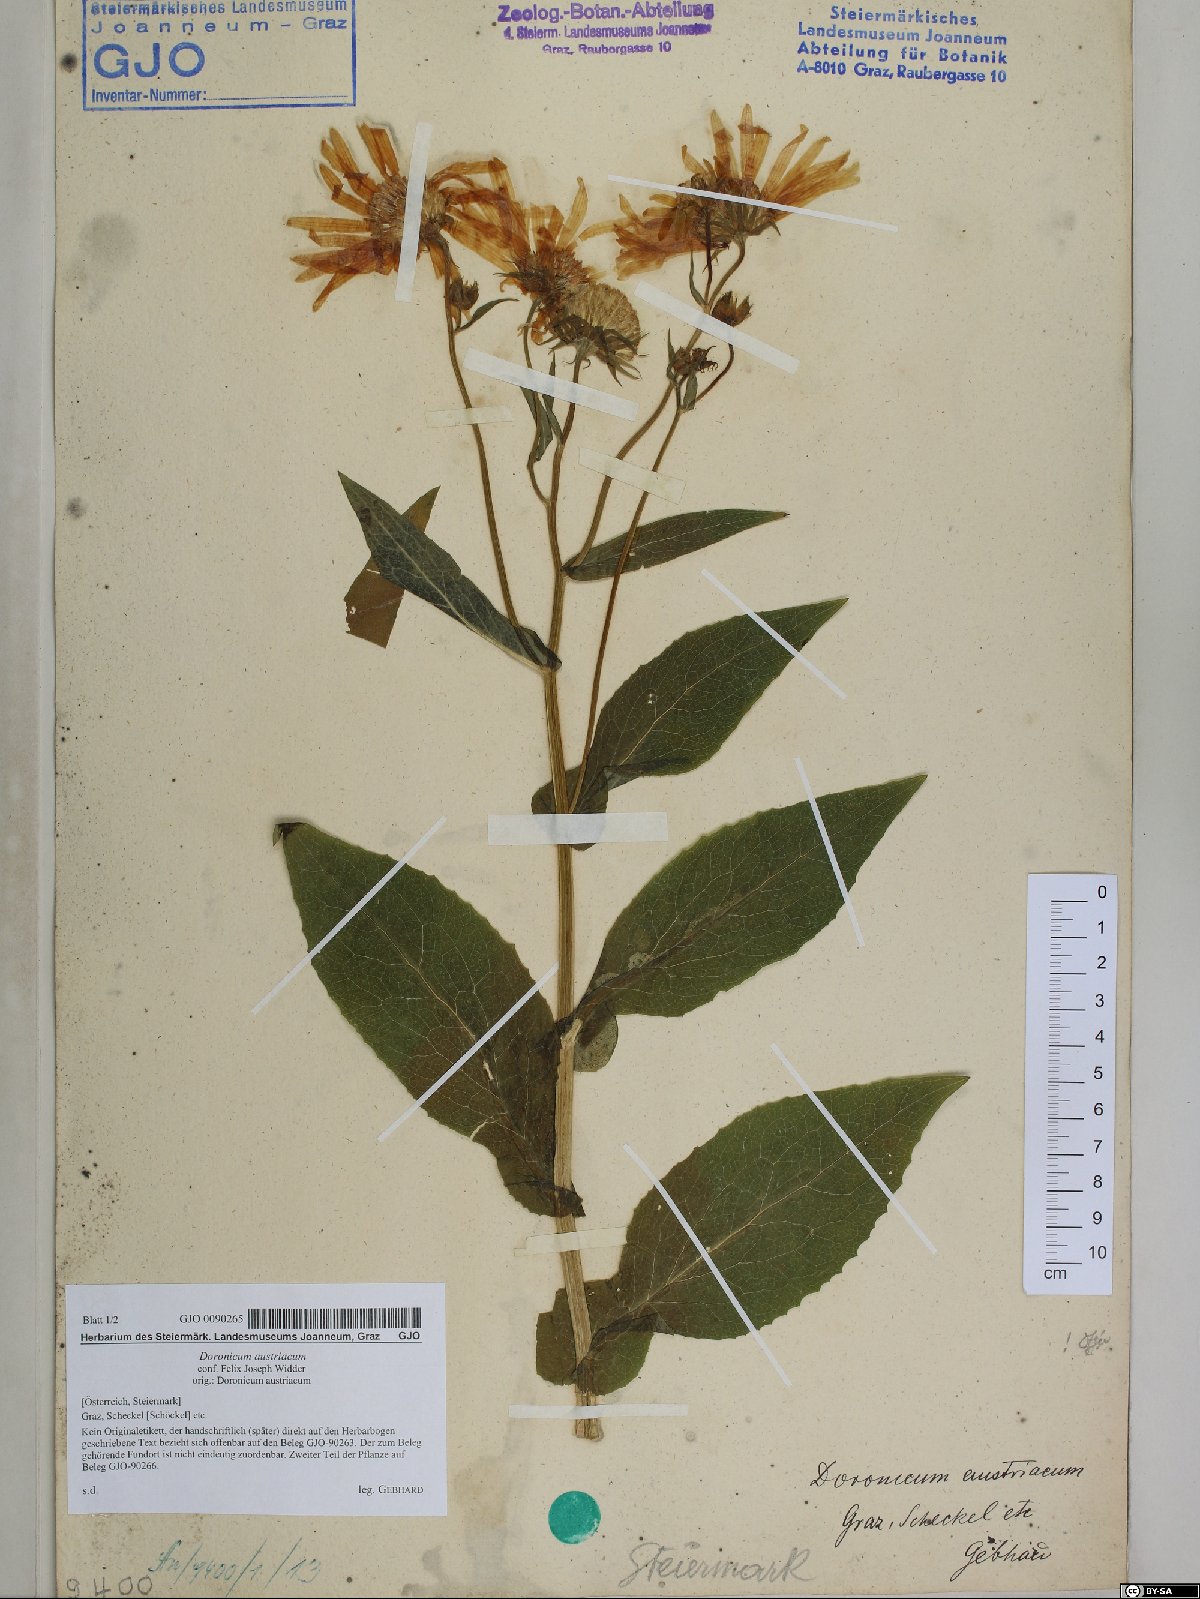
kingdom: Plantae
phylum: Tracheophyta
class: Magnoliopsida
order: Asterales
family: Asteraceae
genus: Doronicum
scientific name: Doronicum austriacum
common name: Austrian leopard's-bane
